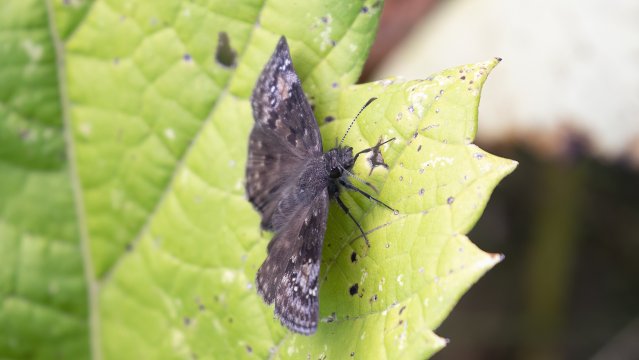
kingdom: Animalia
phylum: Arthropoda
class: Insecta
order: Lepidoptera
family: Hesperiidae
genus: Gesta
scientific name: Gesta
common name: Juvenal's Duskywing
